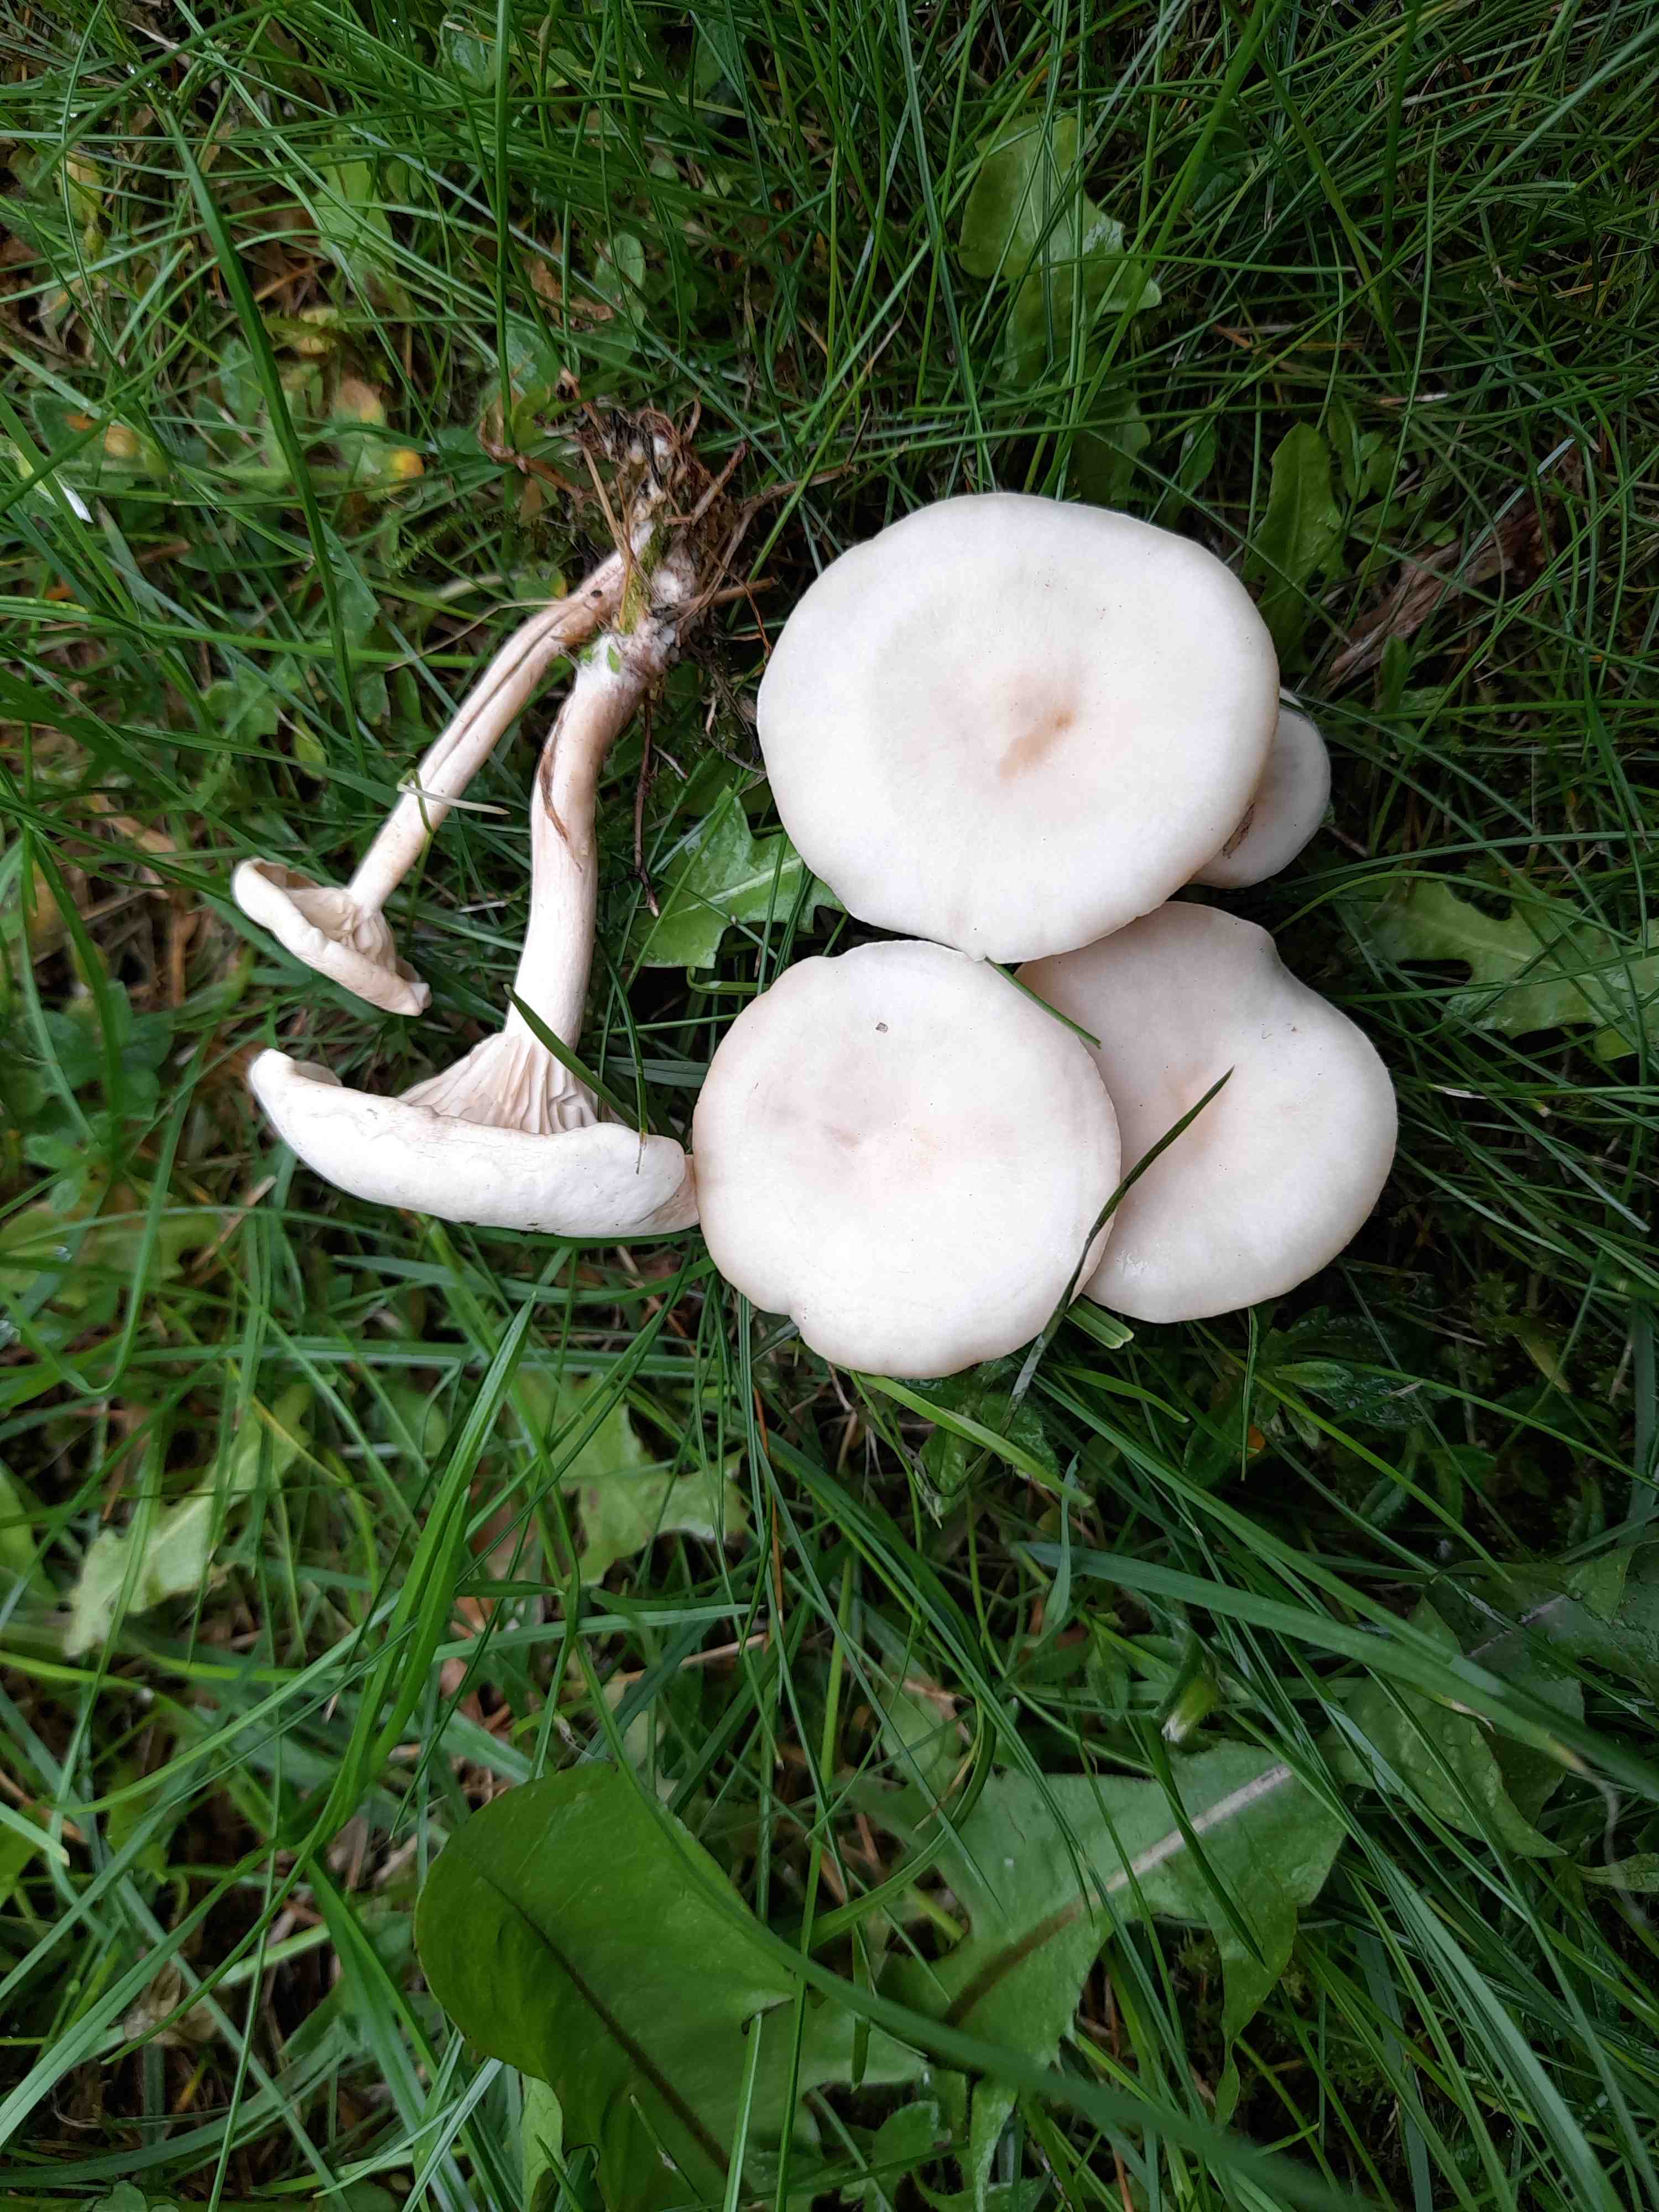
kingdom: Fungi
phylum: Basidiomycota
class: Agaricomycetes
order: Agaricales
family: Tricholomataceae
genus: Clitocybe
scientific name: Clitocybe fragrans
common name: vellugtende tragthat
